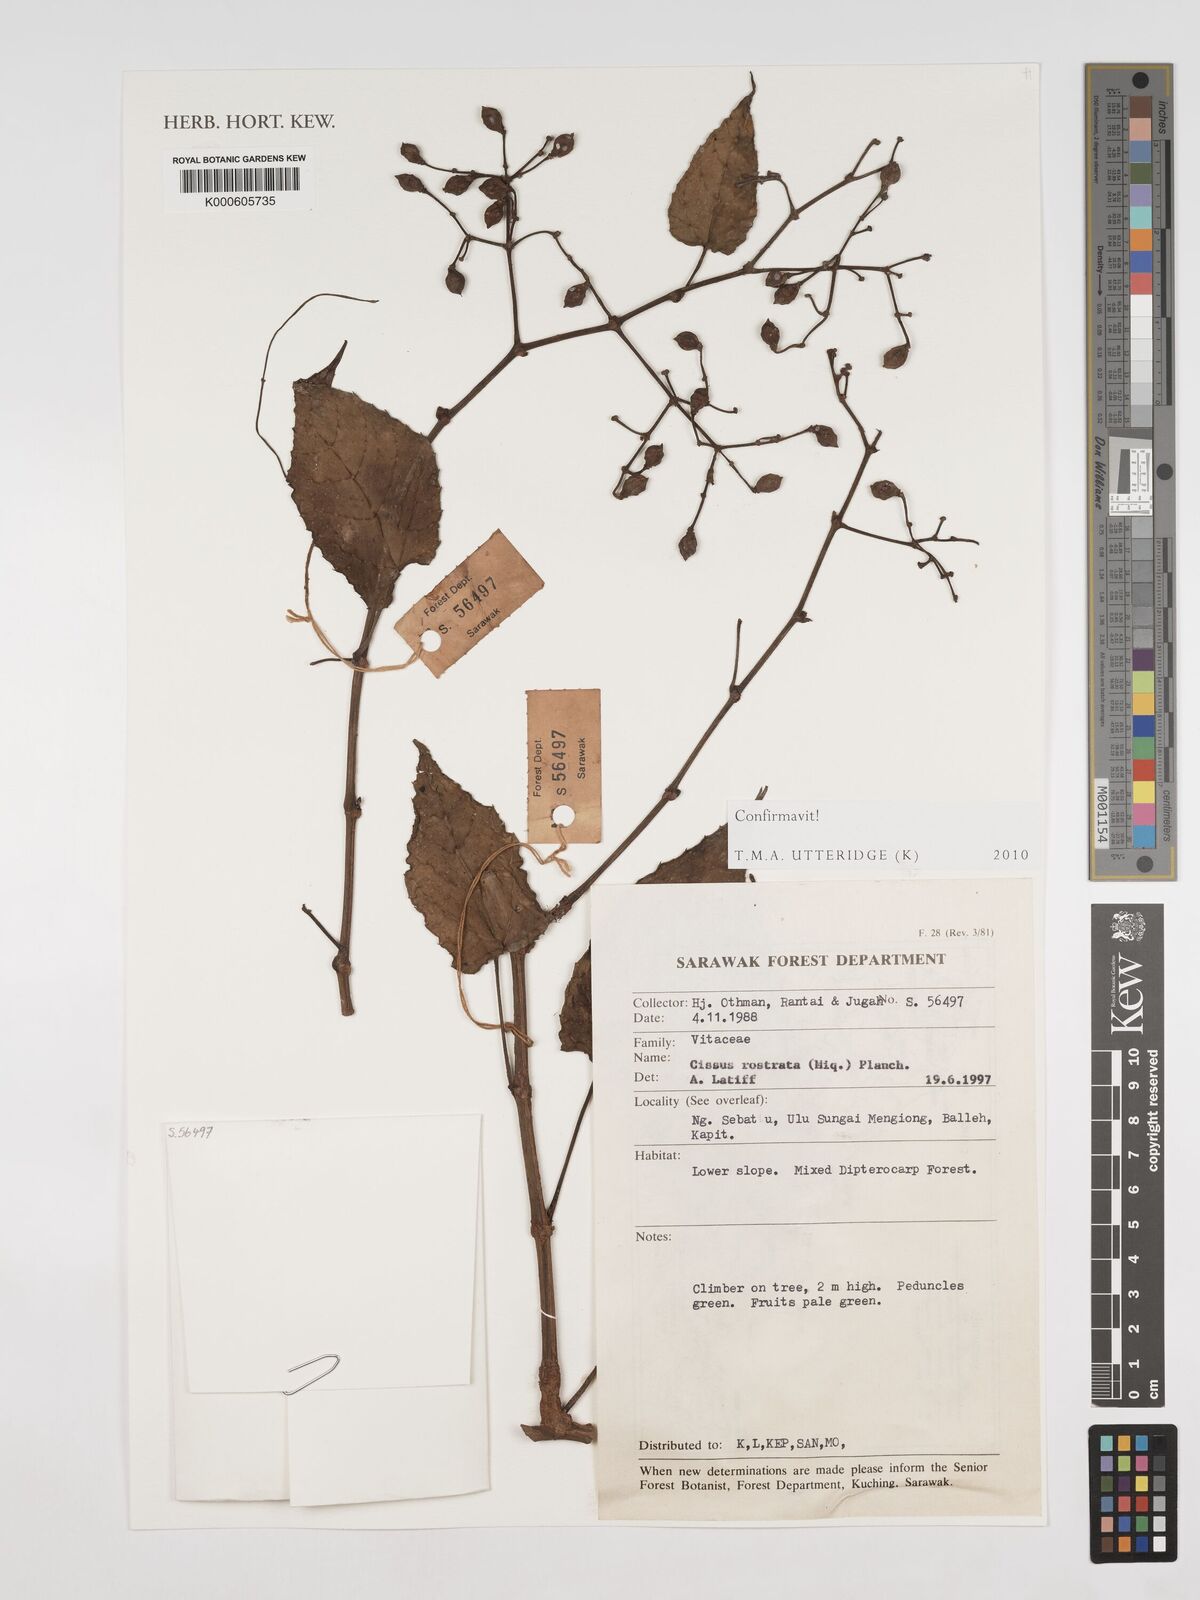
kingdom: Plantae
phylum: Tracheophyta
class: Magnoliopsida
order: Vitales
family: Vitaceae
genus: Cissus
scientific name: Cissus rostrata
